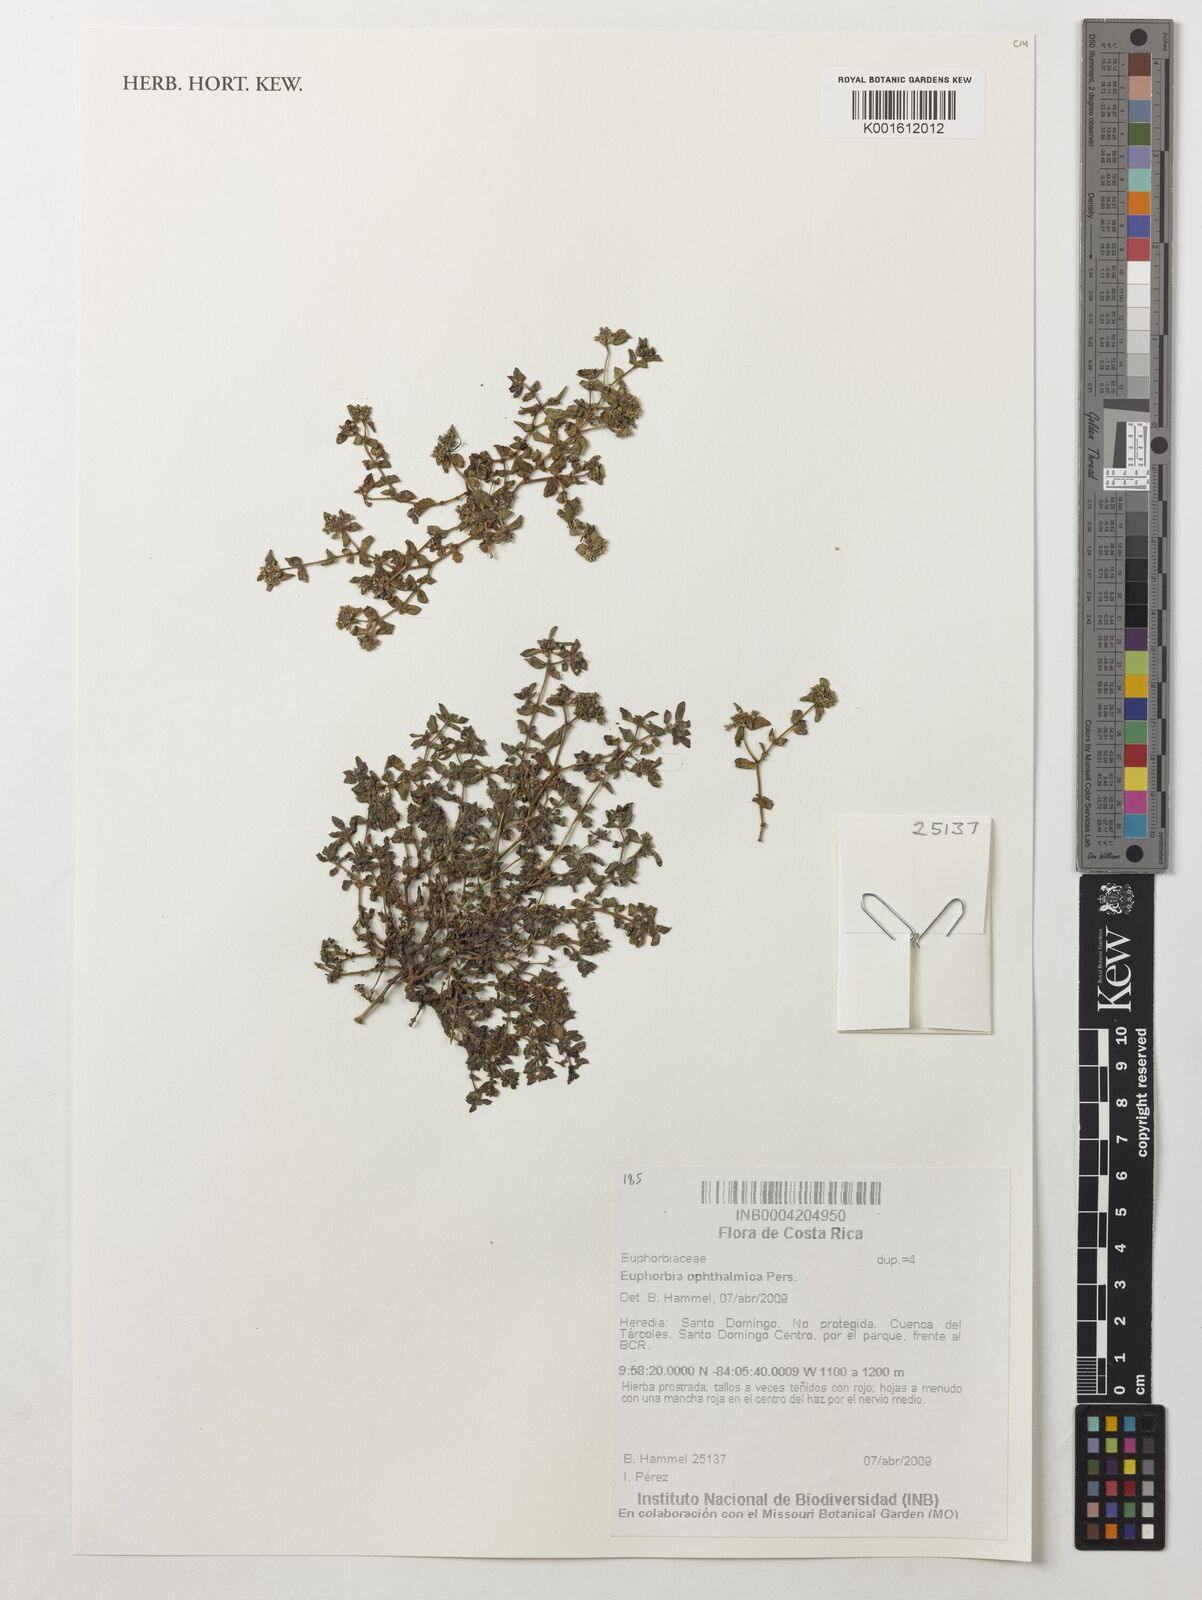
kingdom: Plantae
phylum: Tracheophyta
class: Magnoliopsida
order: Malpighiales
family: Euphorbiaceae
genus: Euphorbia
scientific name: Euphorbia ophthalmica
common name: Florida hammock sandmat
